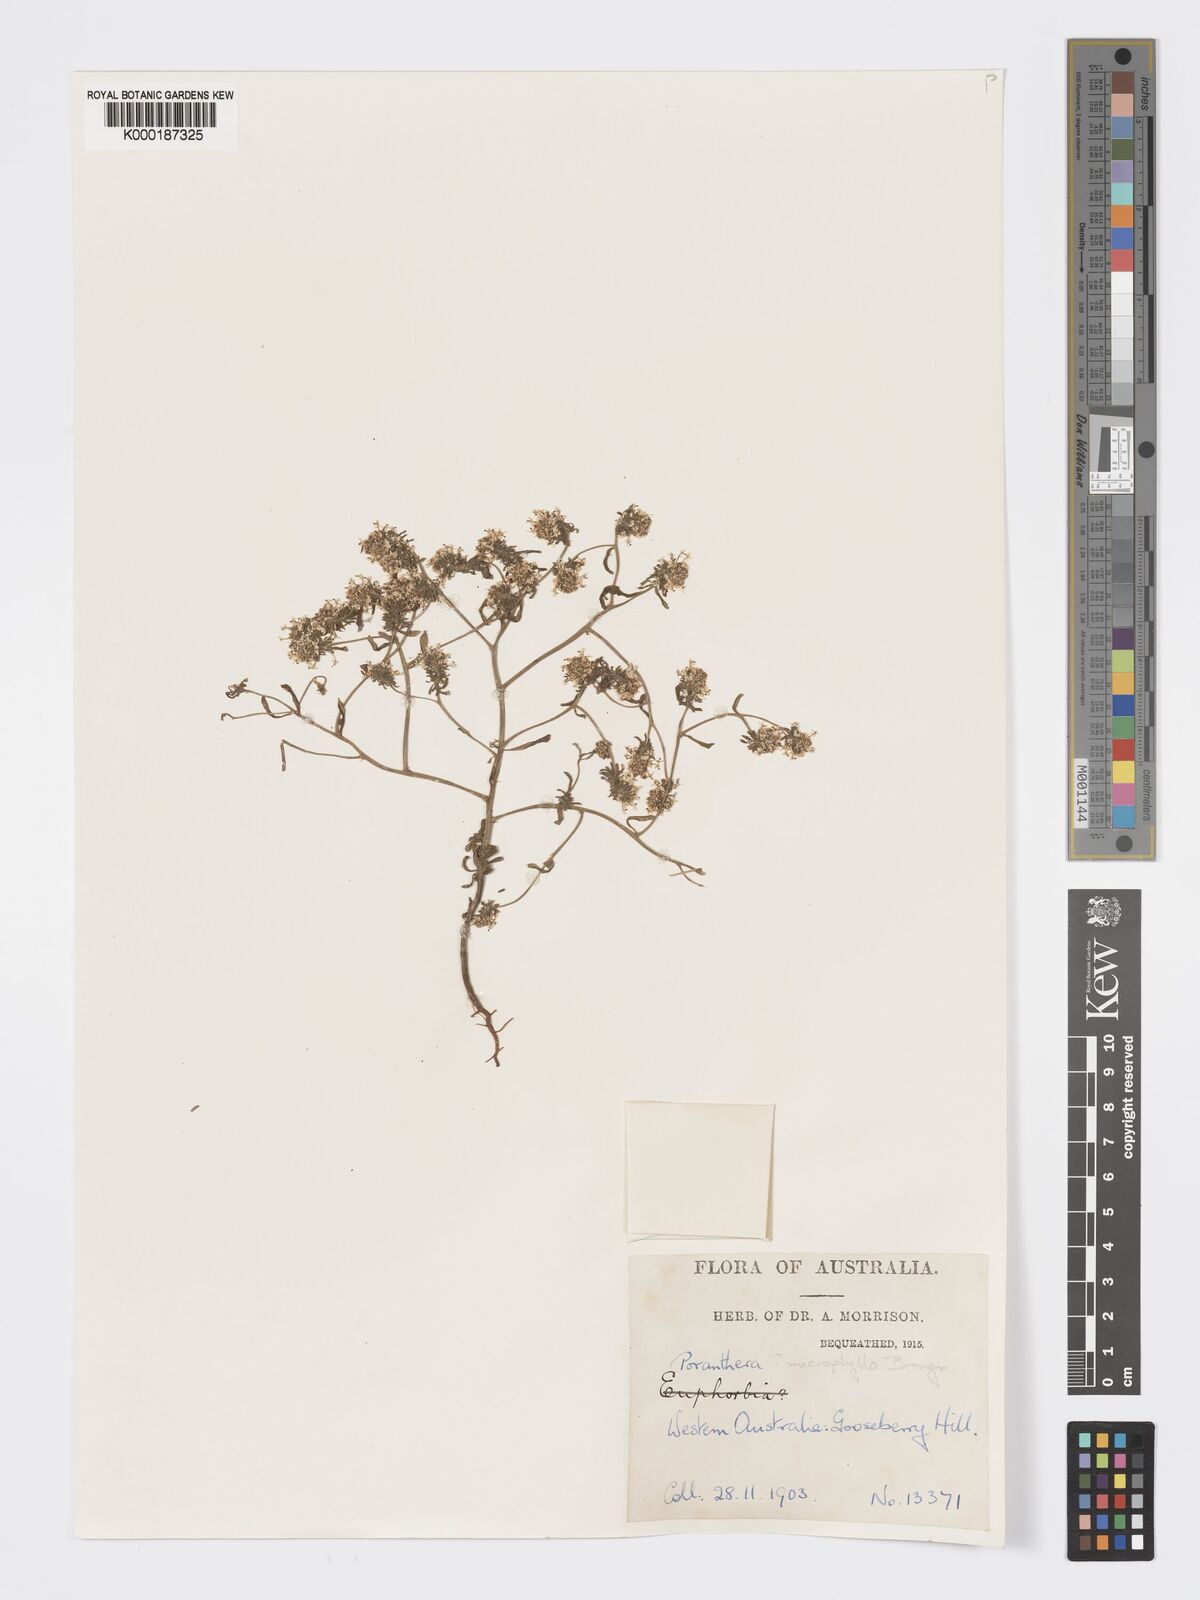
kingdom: Plantae
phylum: Tracheophyta
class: Magnoliopsida
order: Malpighiales
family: Phyllanthaceae
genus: Poranthera
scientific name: Poranthera microphylla
